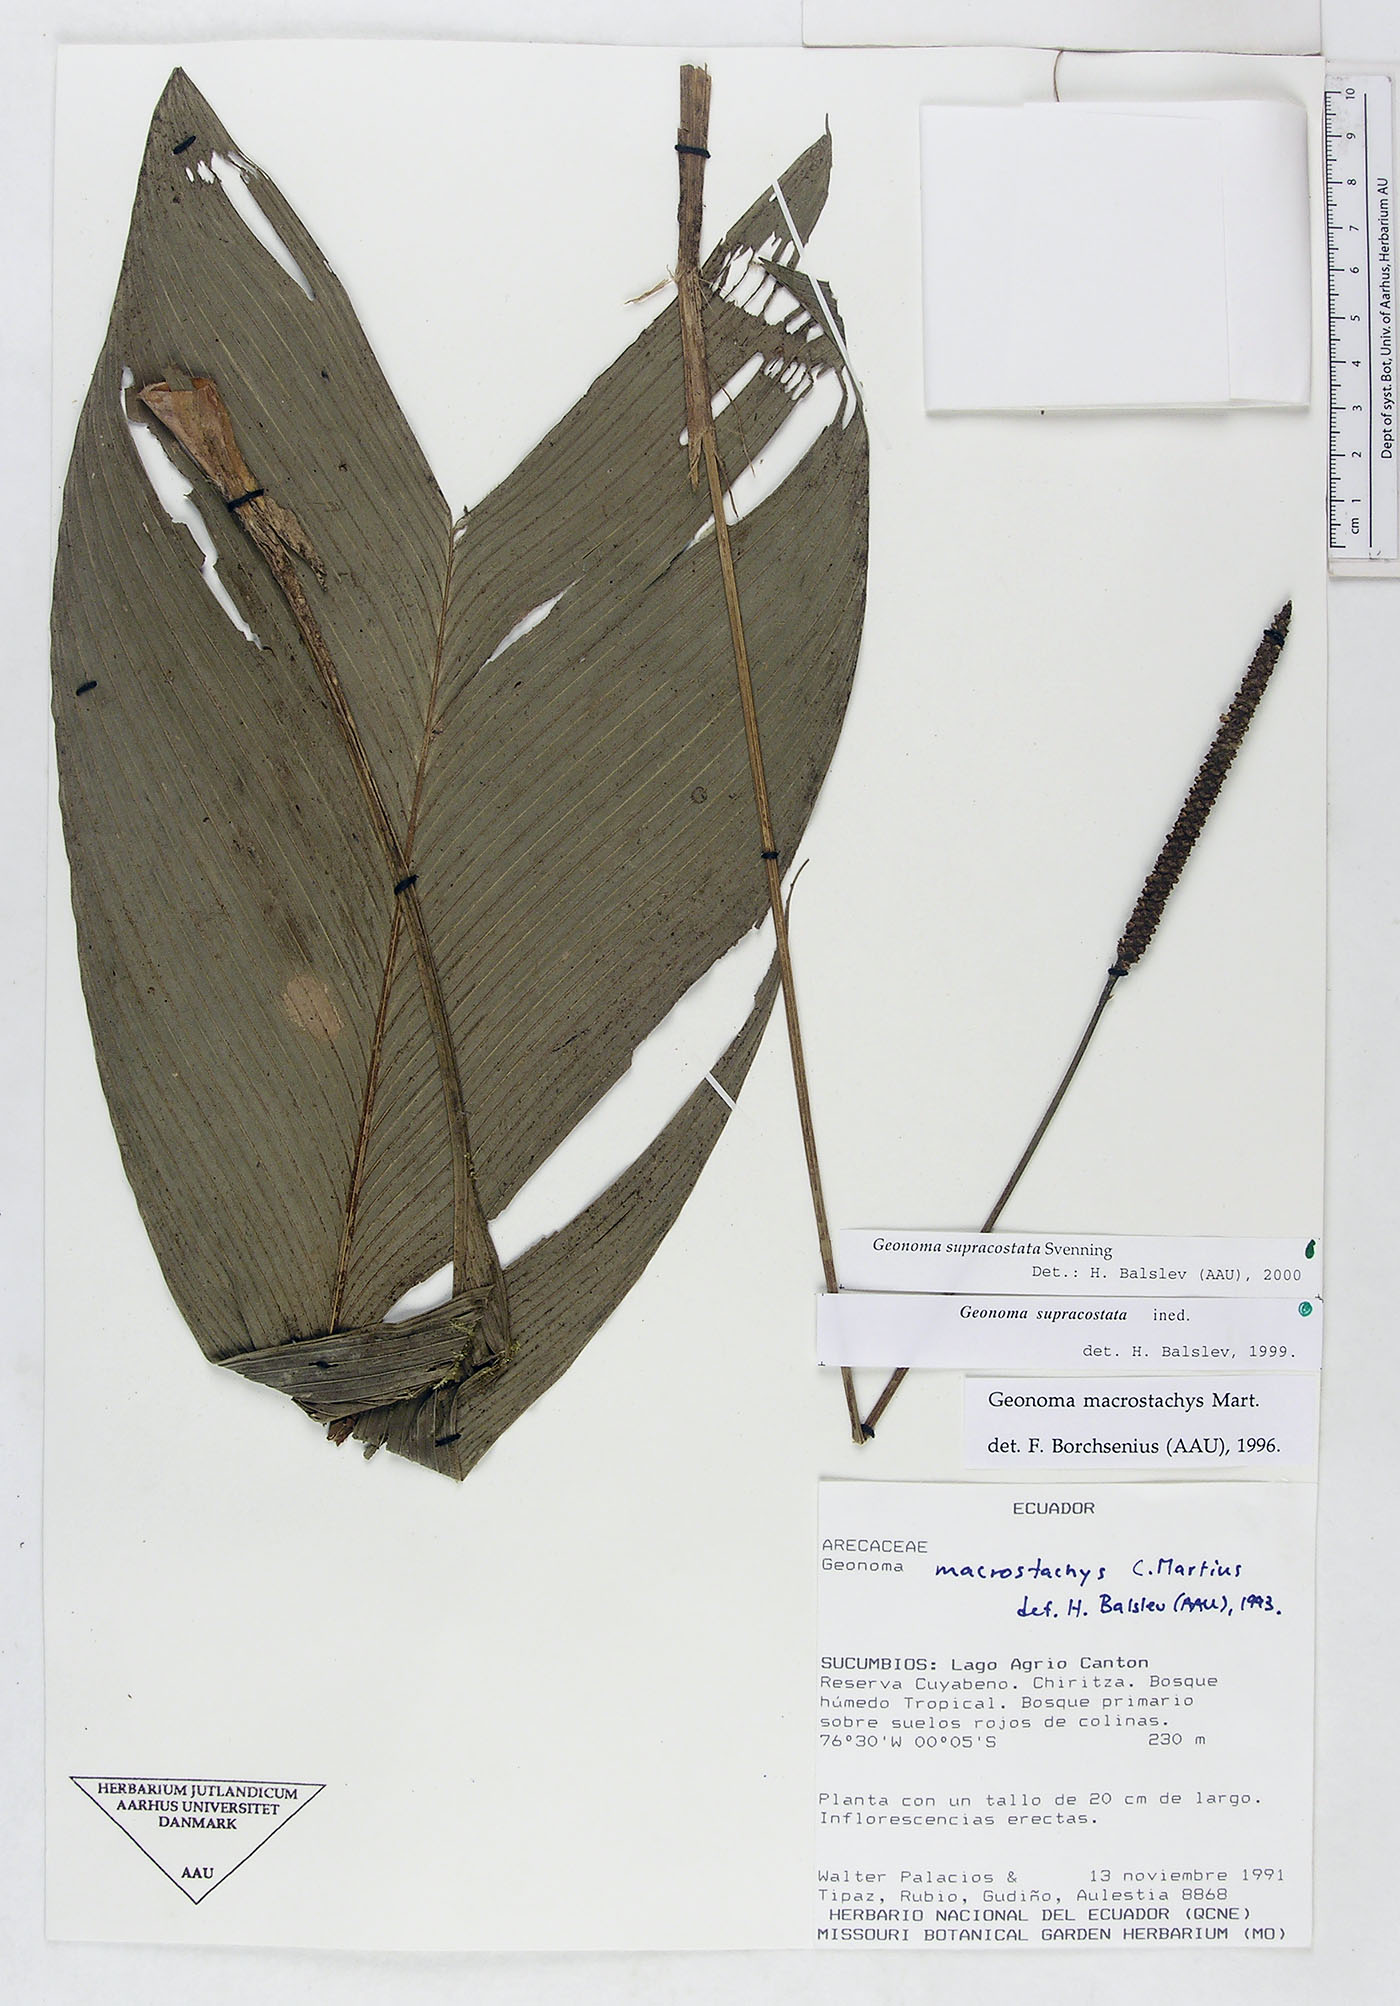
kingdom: Plantae
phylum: Tracheophyta
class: Liliopsida
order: Arecales
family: Arecaceae
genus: Geonoma
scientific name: Geonoma macrostachys
